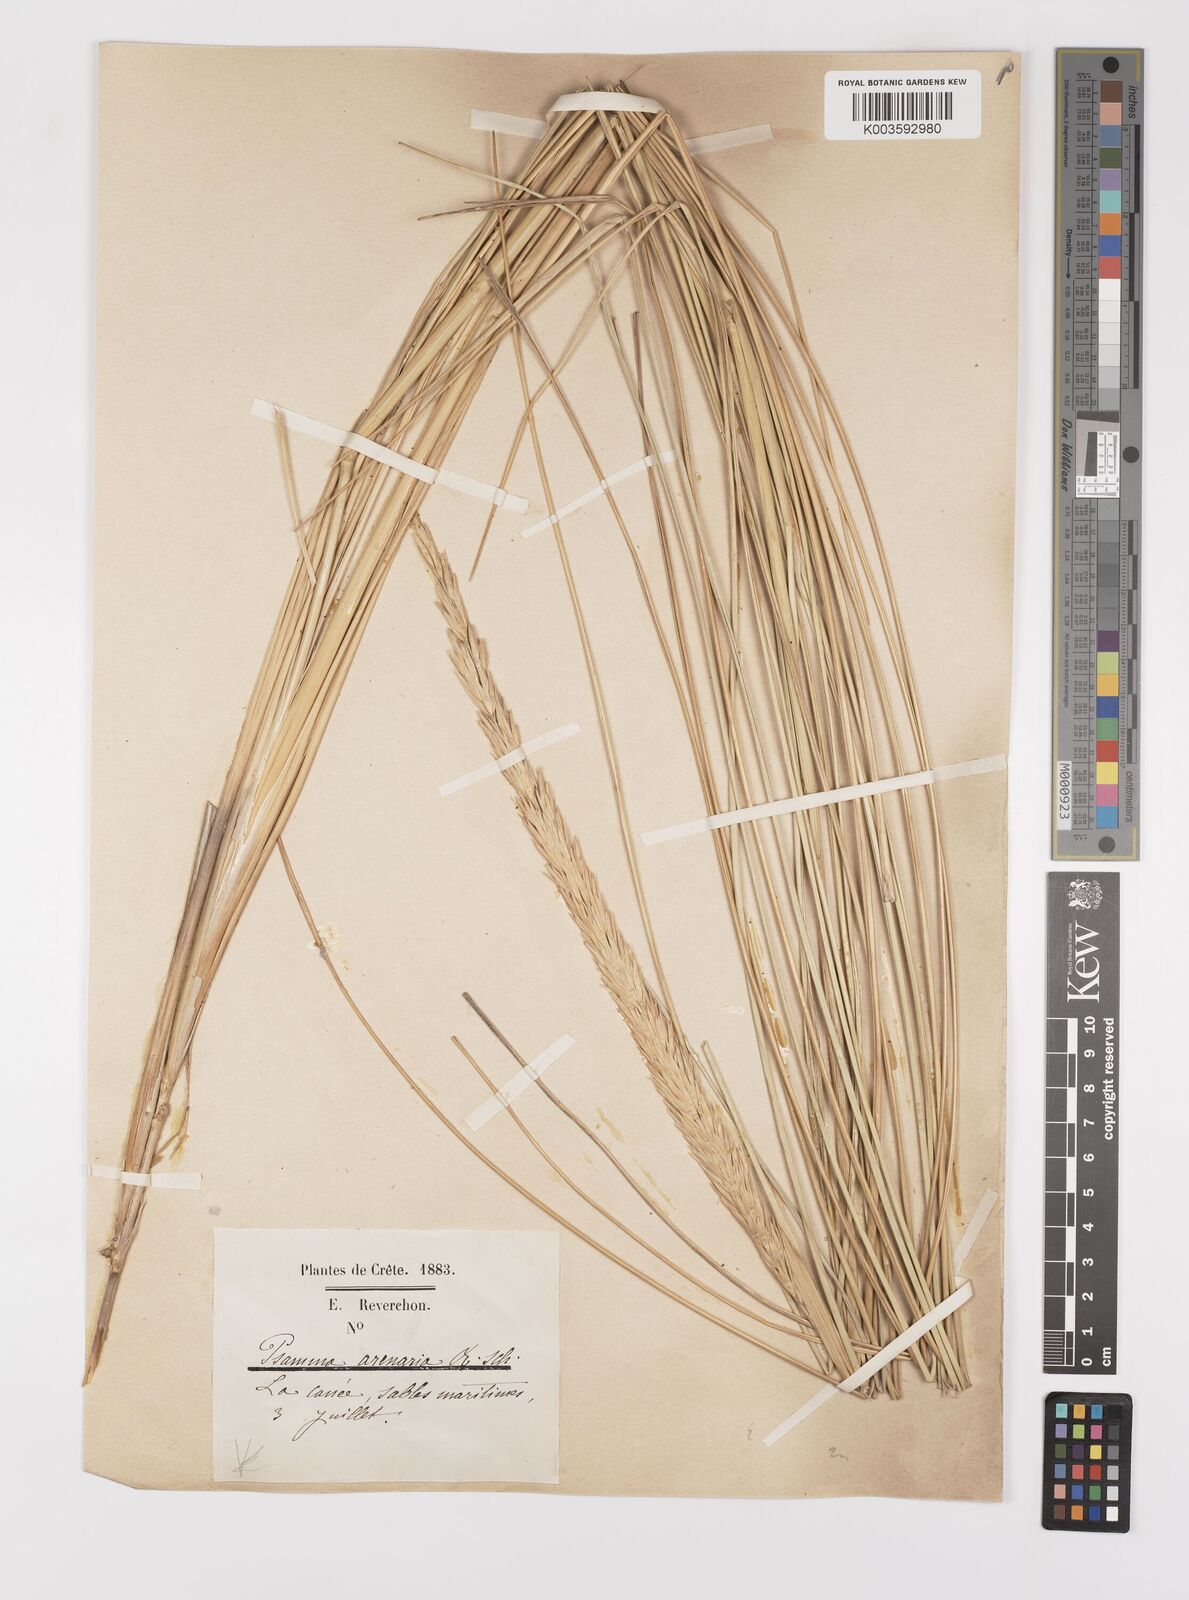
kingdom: Plantae
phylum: Tracheophyta
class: Liliopsida
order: Poales
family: Poaceae
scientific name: Poaceae
